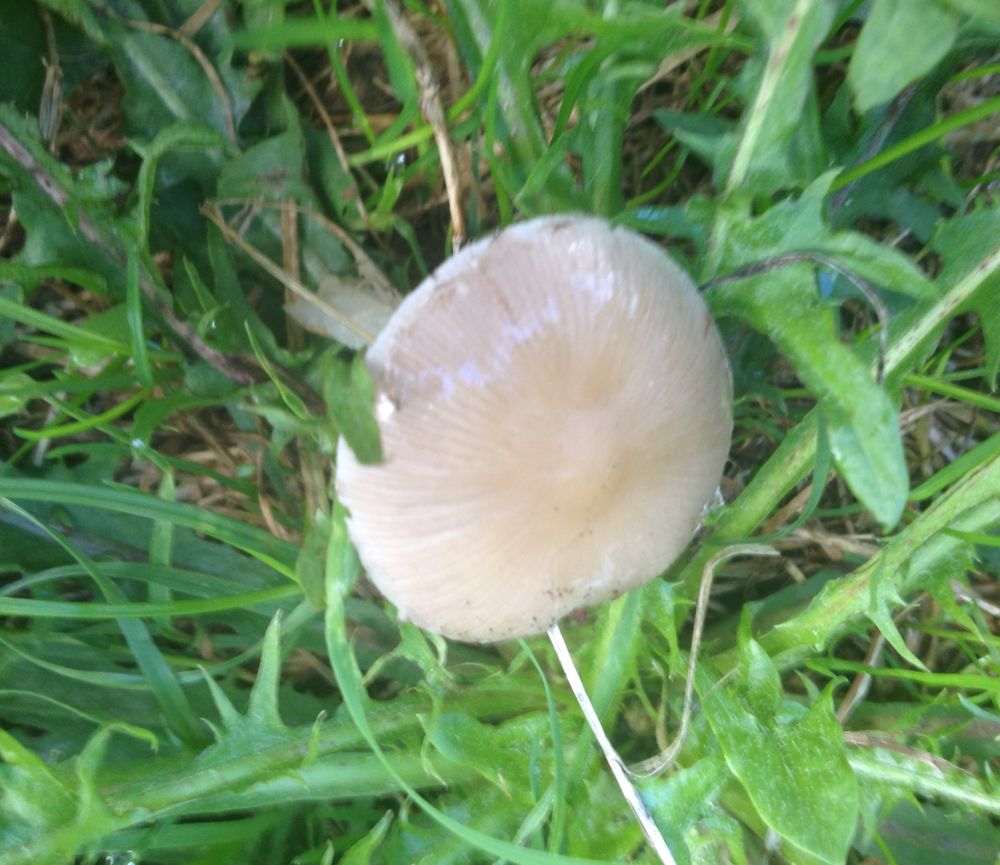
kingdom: Fungi
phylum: Basidiomycota
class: Agaricomycetes
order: Agaricales
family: Psathyrellaceae
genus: Psathyrella
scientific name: Psathyrella
